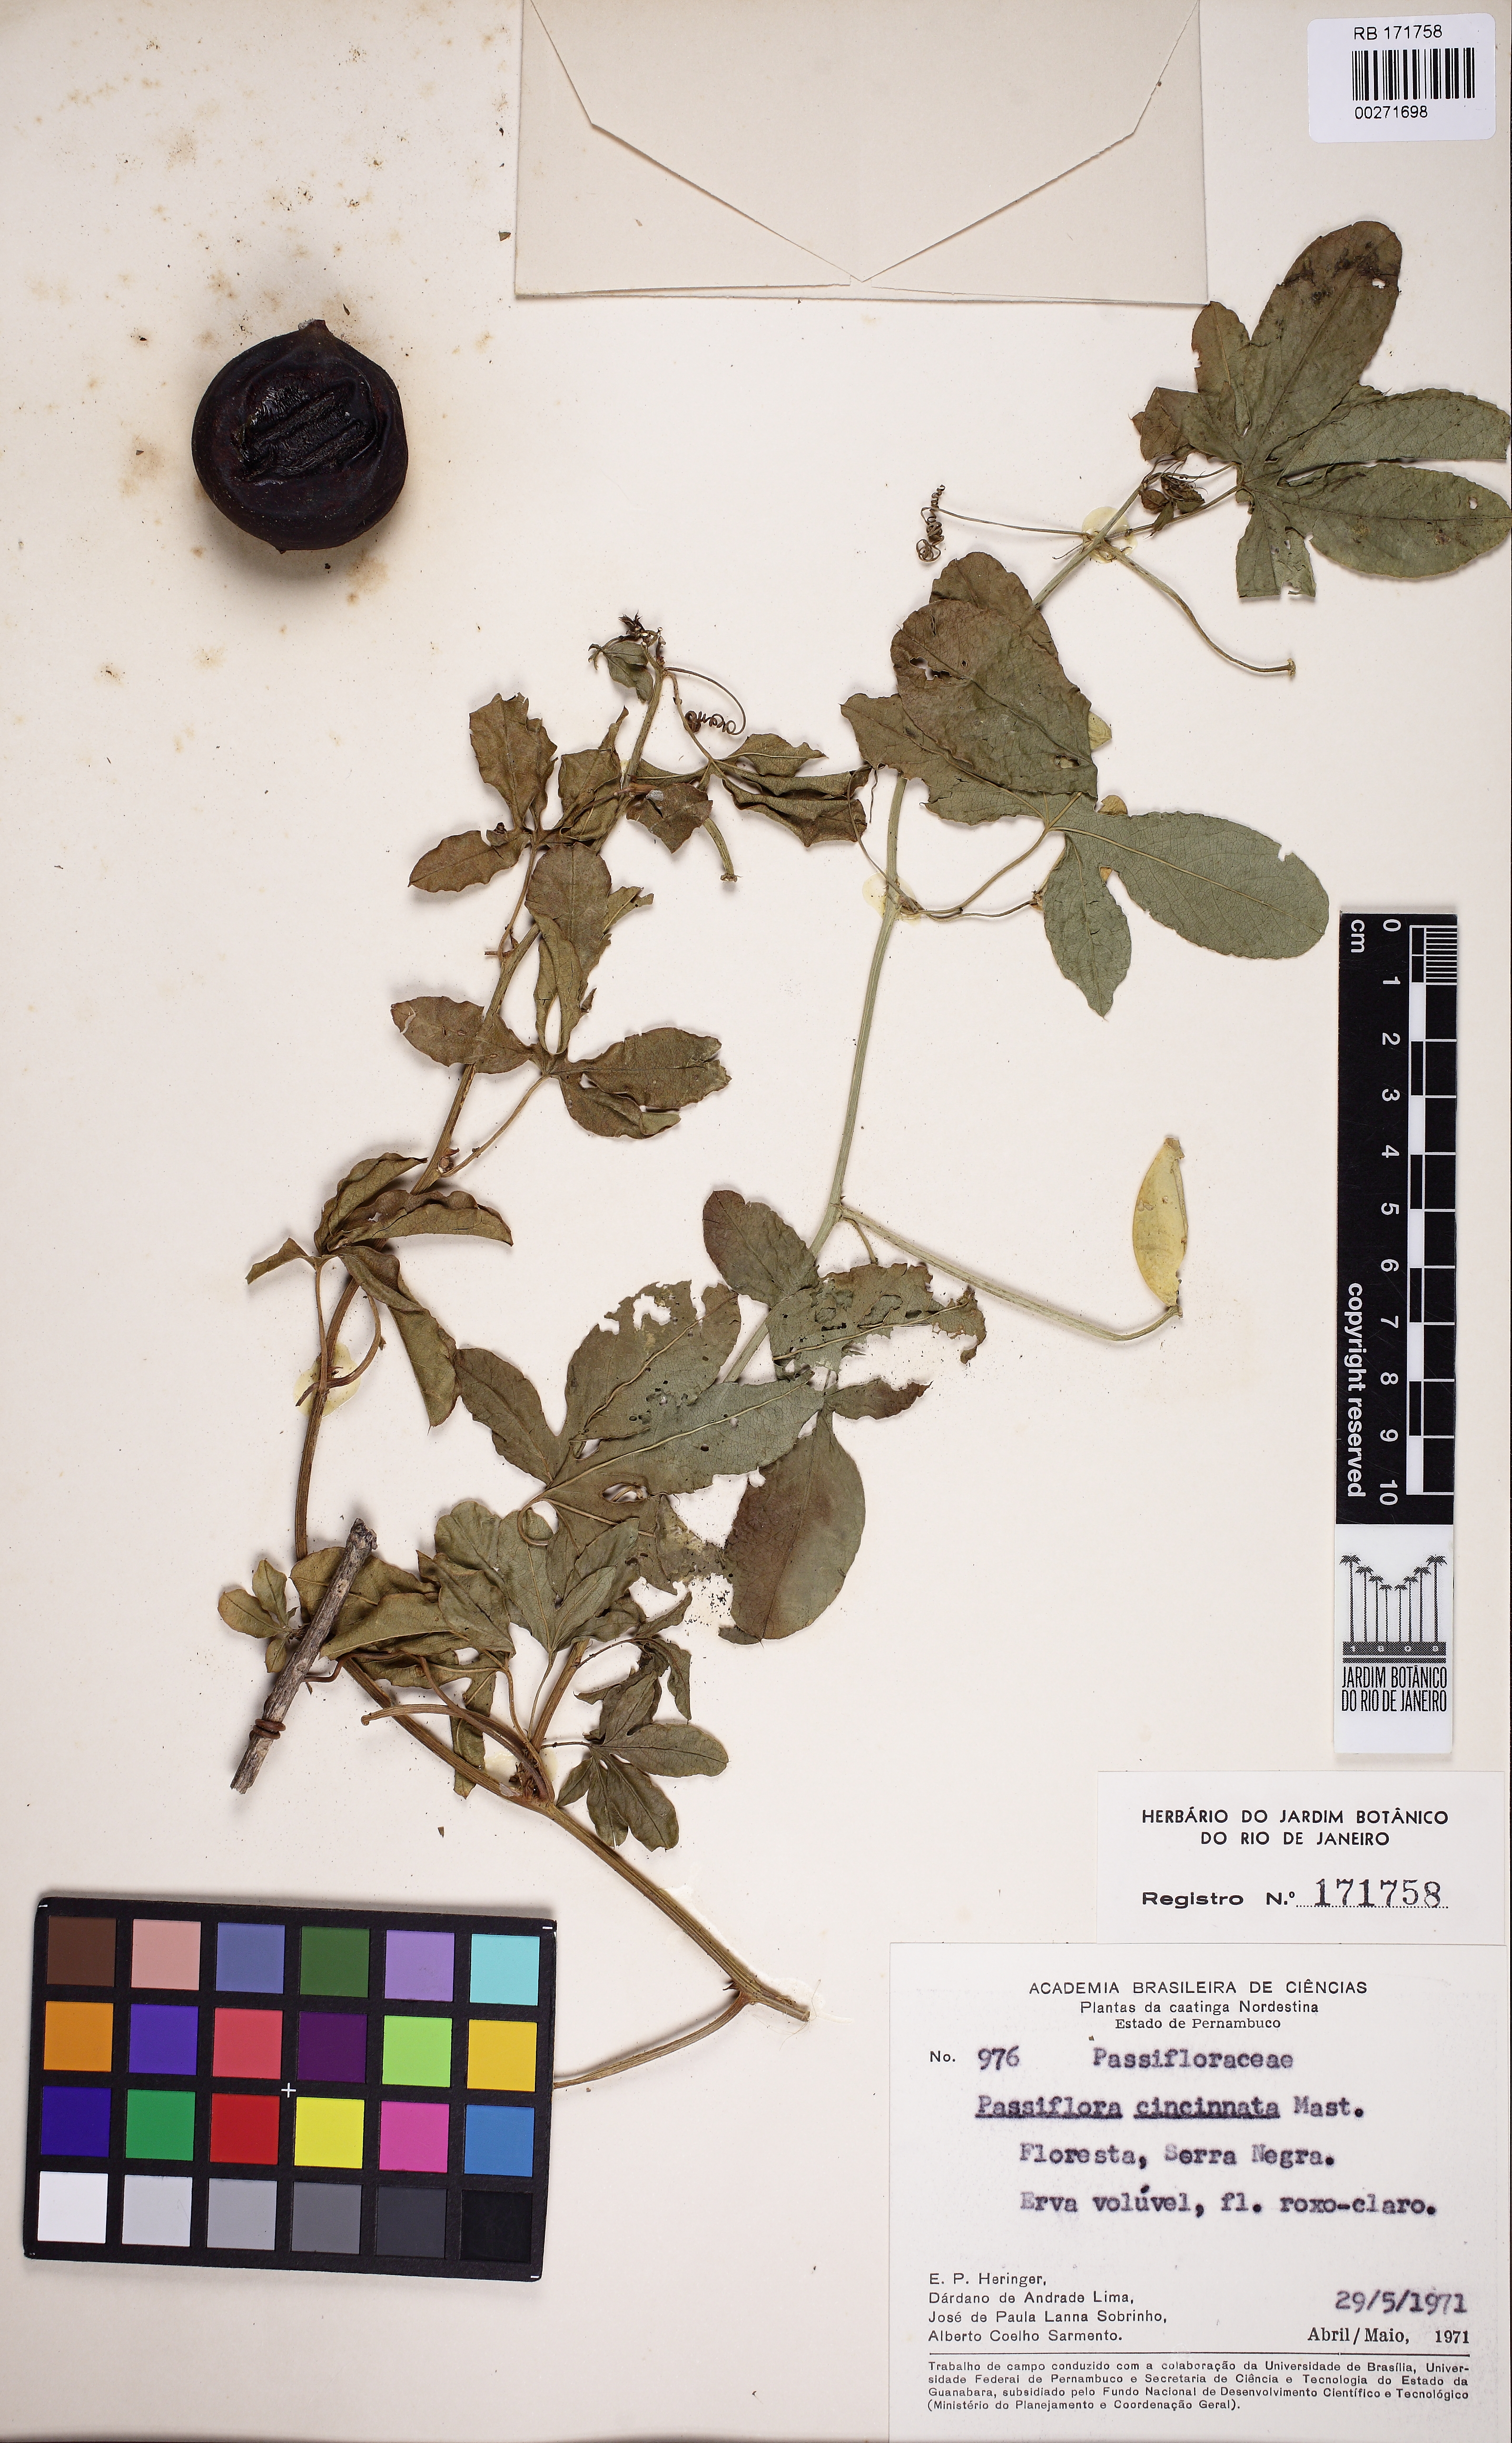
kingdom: Plantae
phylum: Tracheophyta
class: Magnoliopsida
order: Malpighiales
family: Passifloraceae
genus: Passiflora
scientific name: Passiflora cincinnata
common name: Crato passionvine
